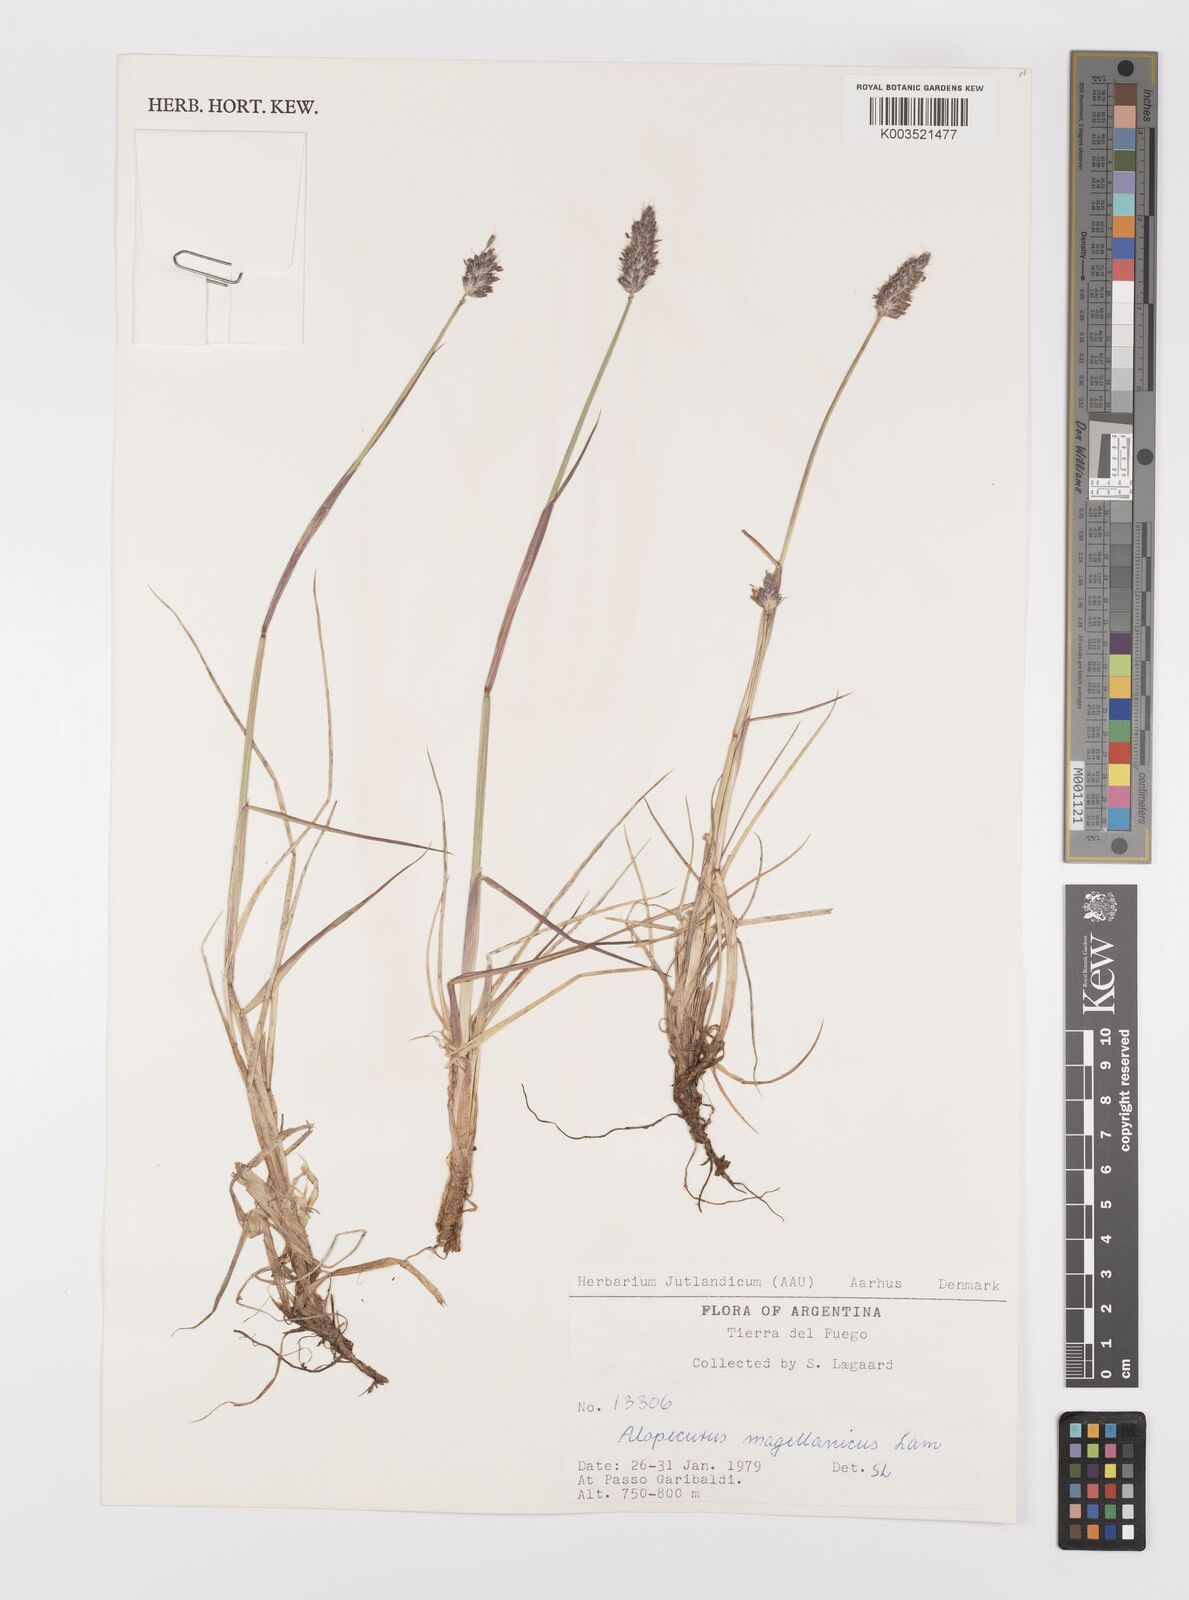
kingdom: Plantae
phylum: Tracheophyta
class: Liliopsida
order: Poales
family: Poaceae
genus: Alopecurus
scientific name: Alopecurus magellanicus
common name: Alpine foxtail
